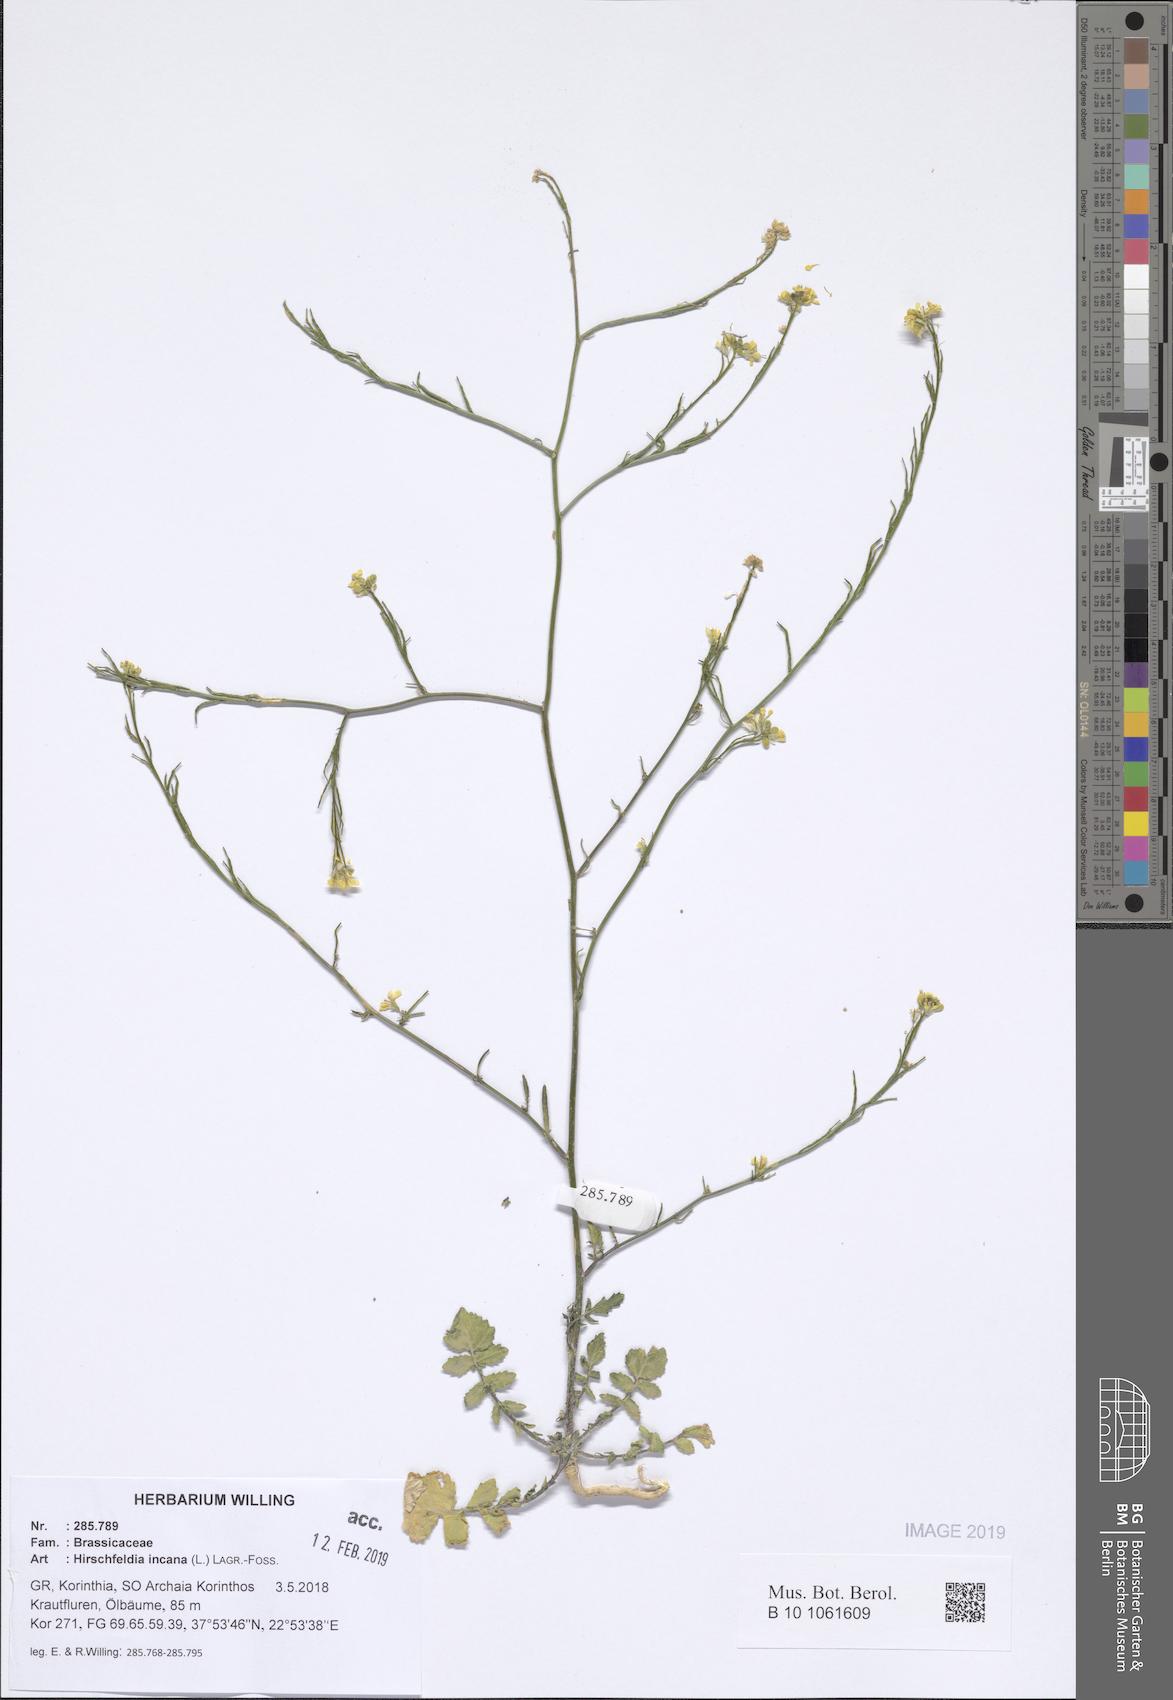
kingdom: Plantae
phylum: Tracheophyta
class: Magnoliopsida
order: Brassicales
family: Brassicaceae
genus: Hirschfeldia
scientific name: Hirschfeldia incana
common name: Hoary mustard
